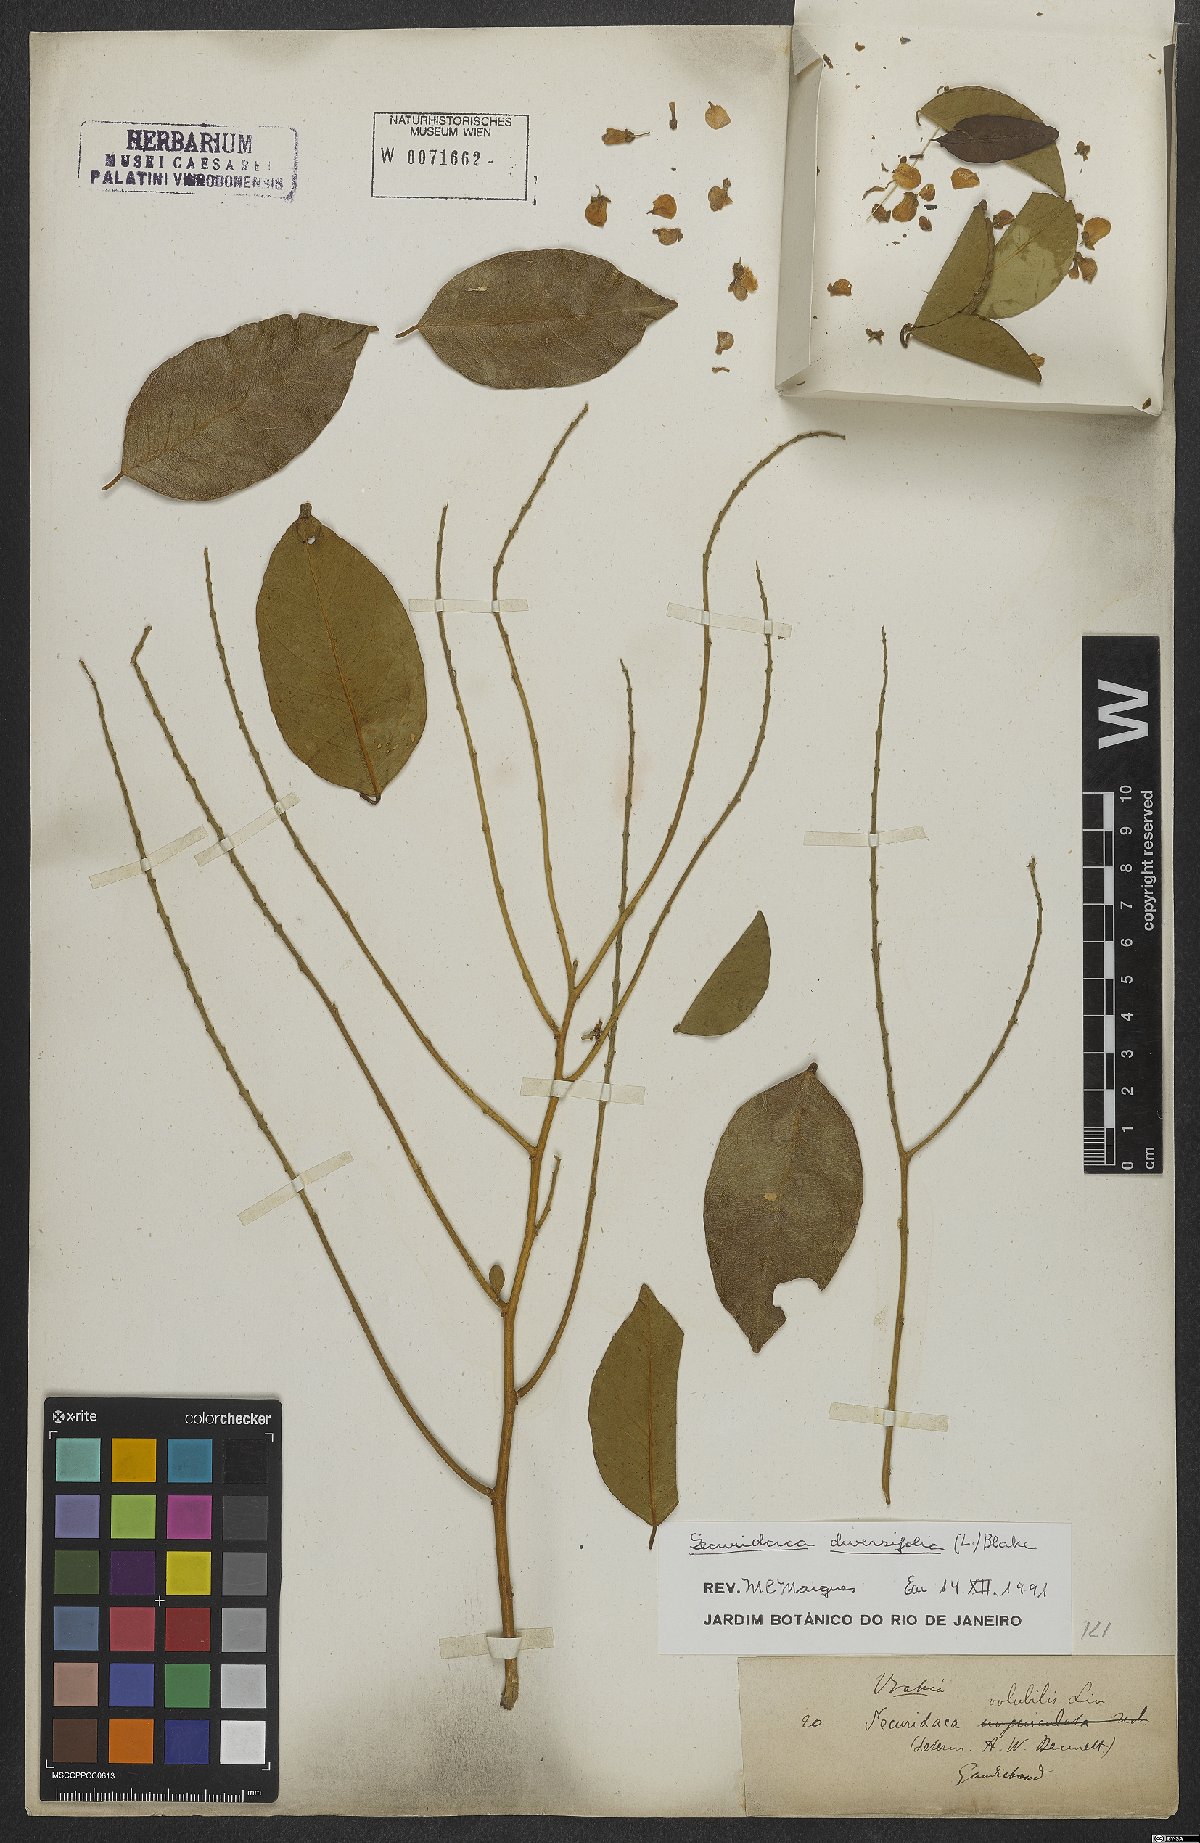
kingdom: Plantae
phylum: Tracheophyta
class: Magnoliopsida
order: Fabales
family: Polygalaceae
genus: Securidaca
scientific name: Securidaca diversifolia
